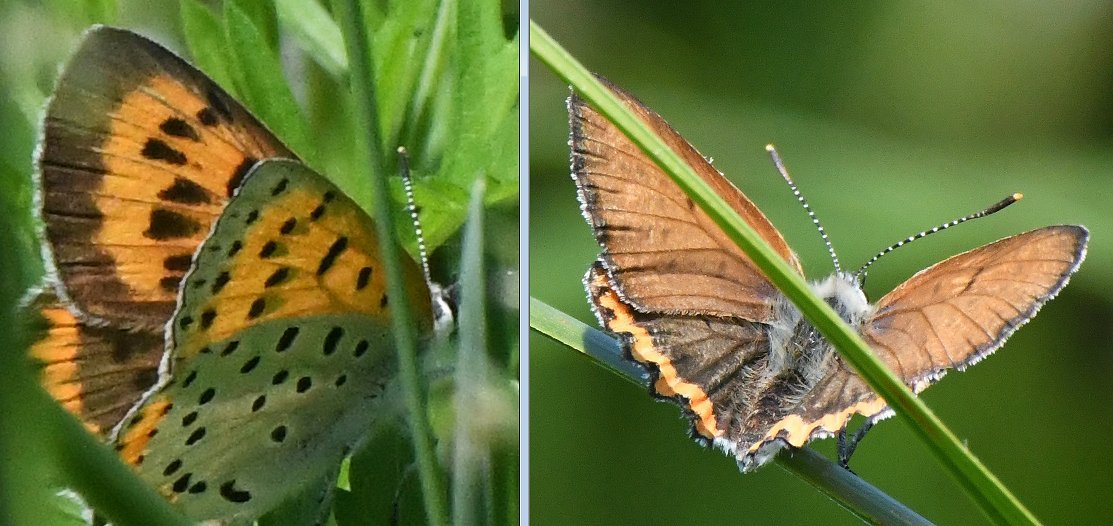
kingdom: Animalia
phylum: Arthropoda
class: Insecta
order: Lepidoptera
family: Sesiidae
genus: Sesia
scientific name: Sesia Lycaena hyllus
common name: Bronze Copper
